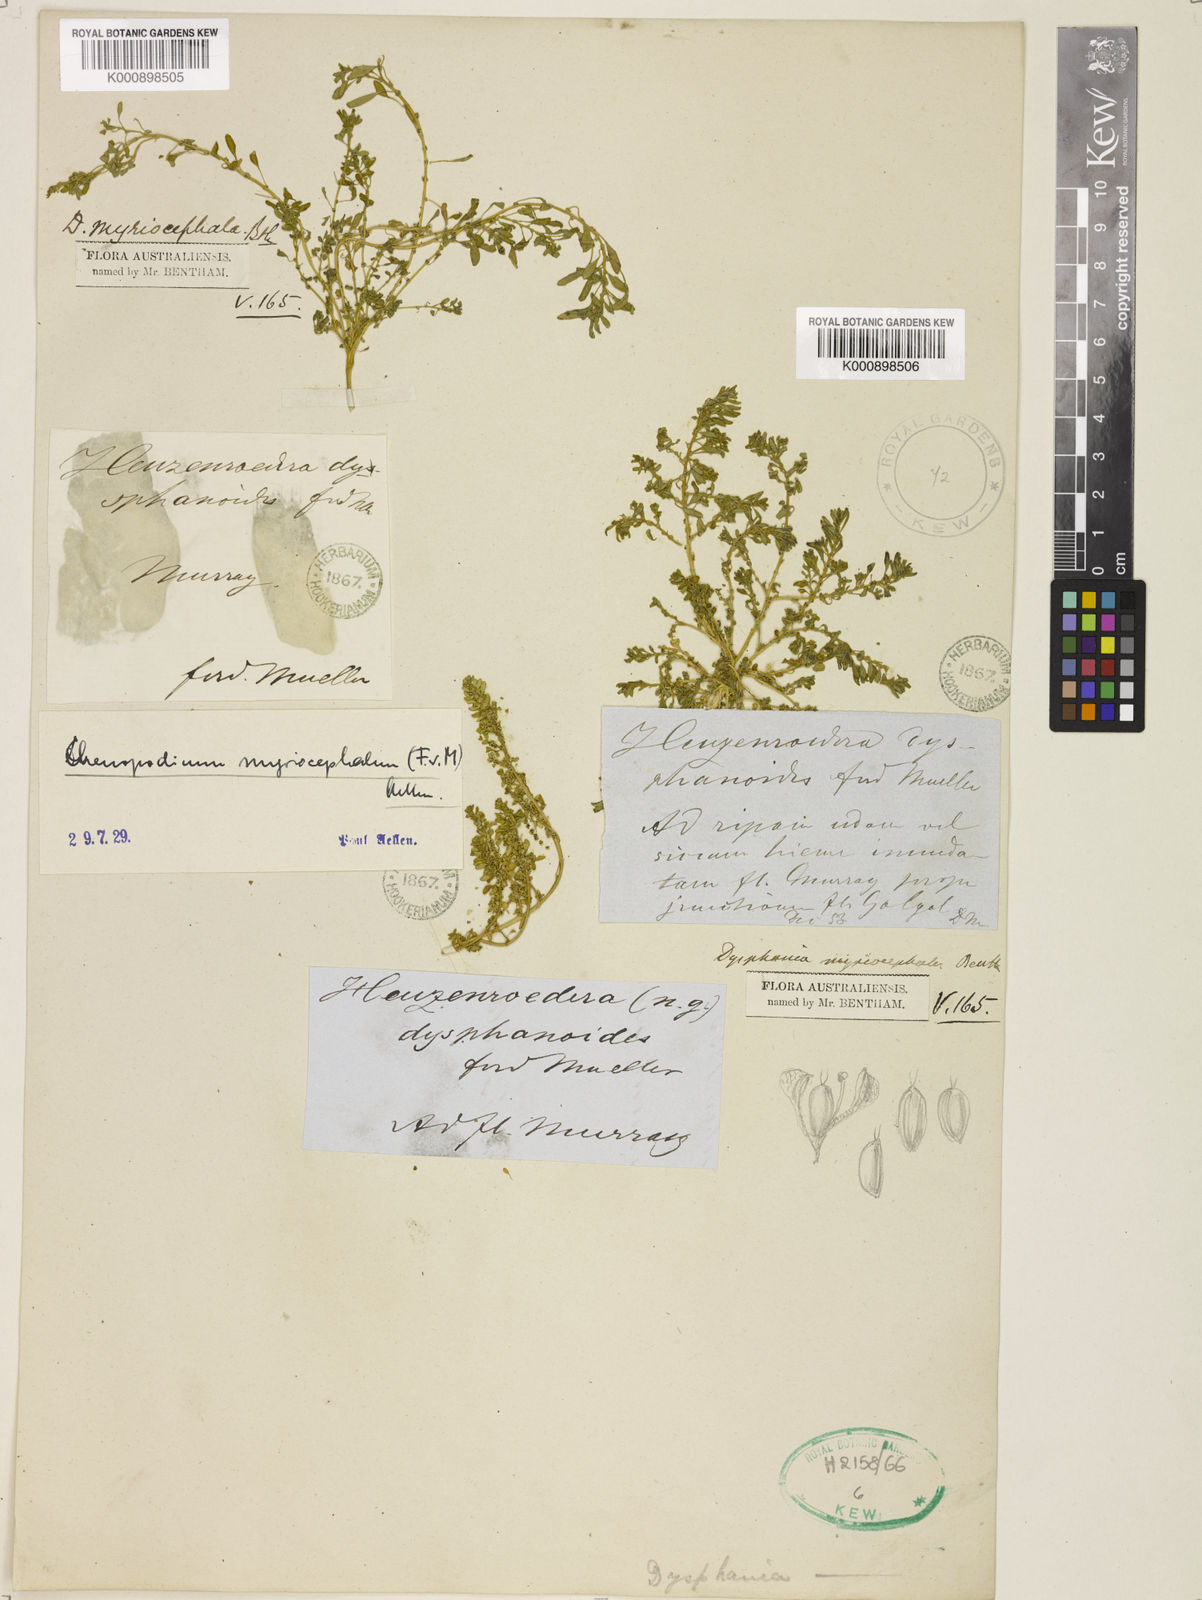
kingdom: Plantae
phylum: Tracheophyta
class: Magnoliopsida
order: Caryophyllales
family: Amaranthaceae
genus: Dysphania
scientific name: Dysphania glomulifera
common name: Australian pigweed
